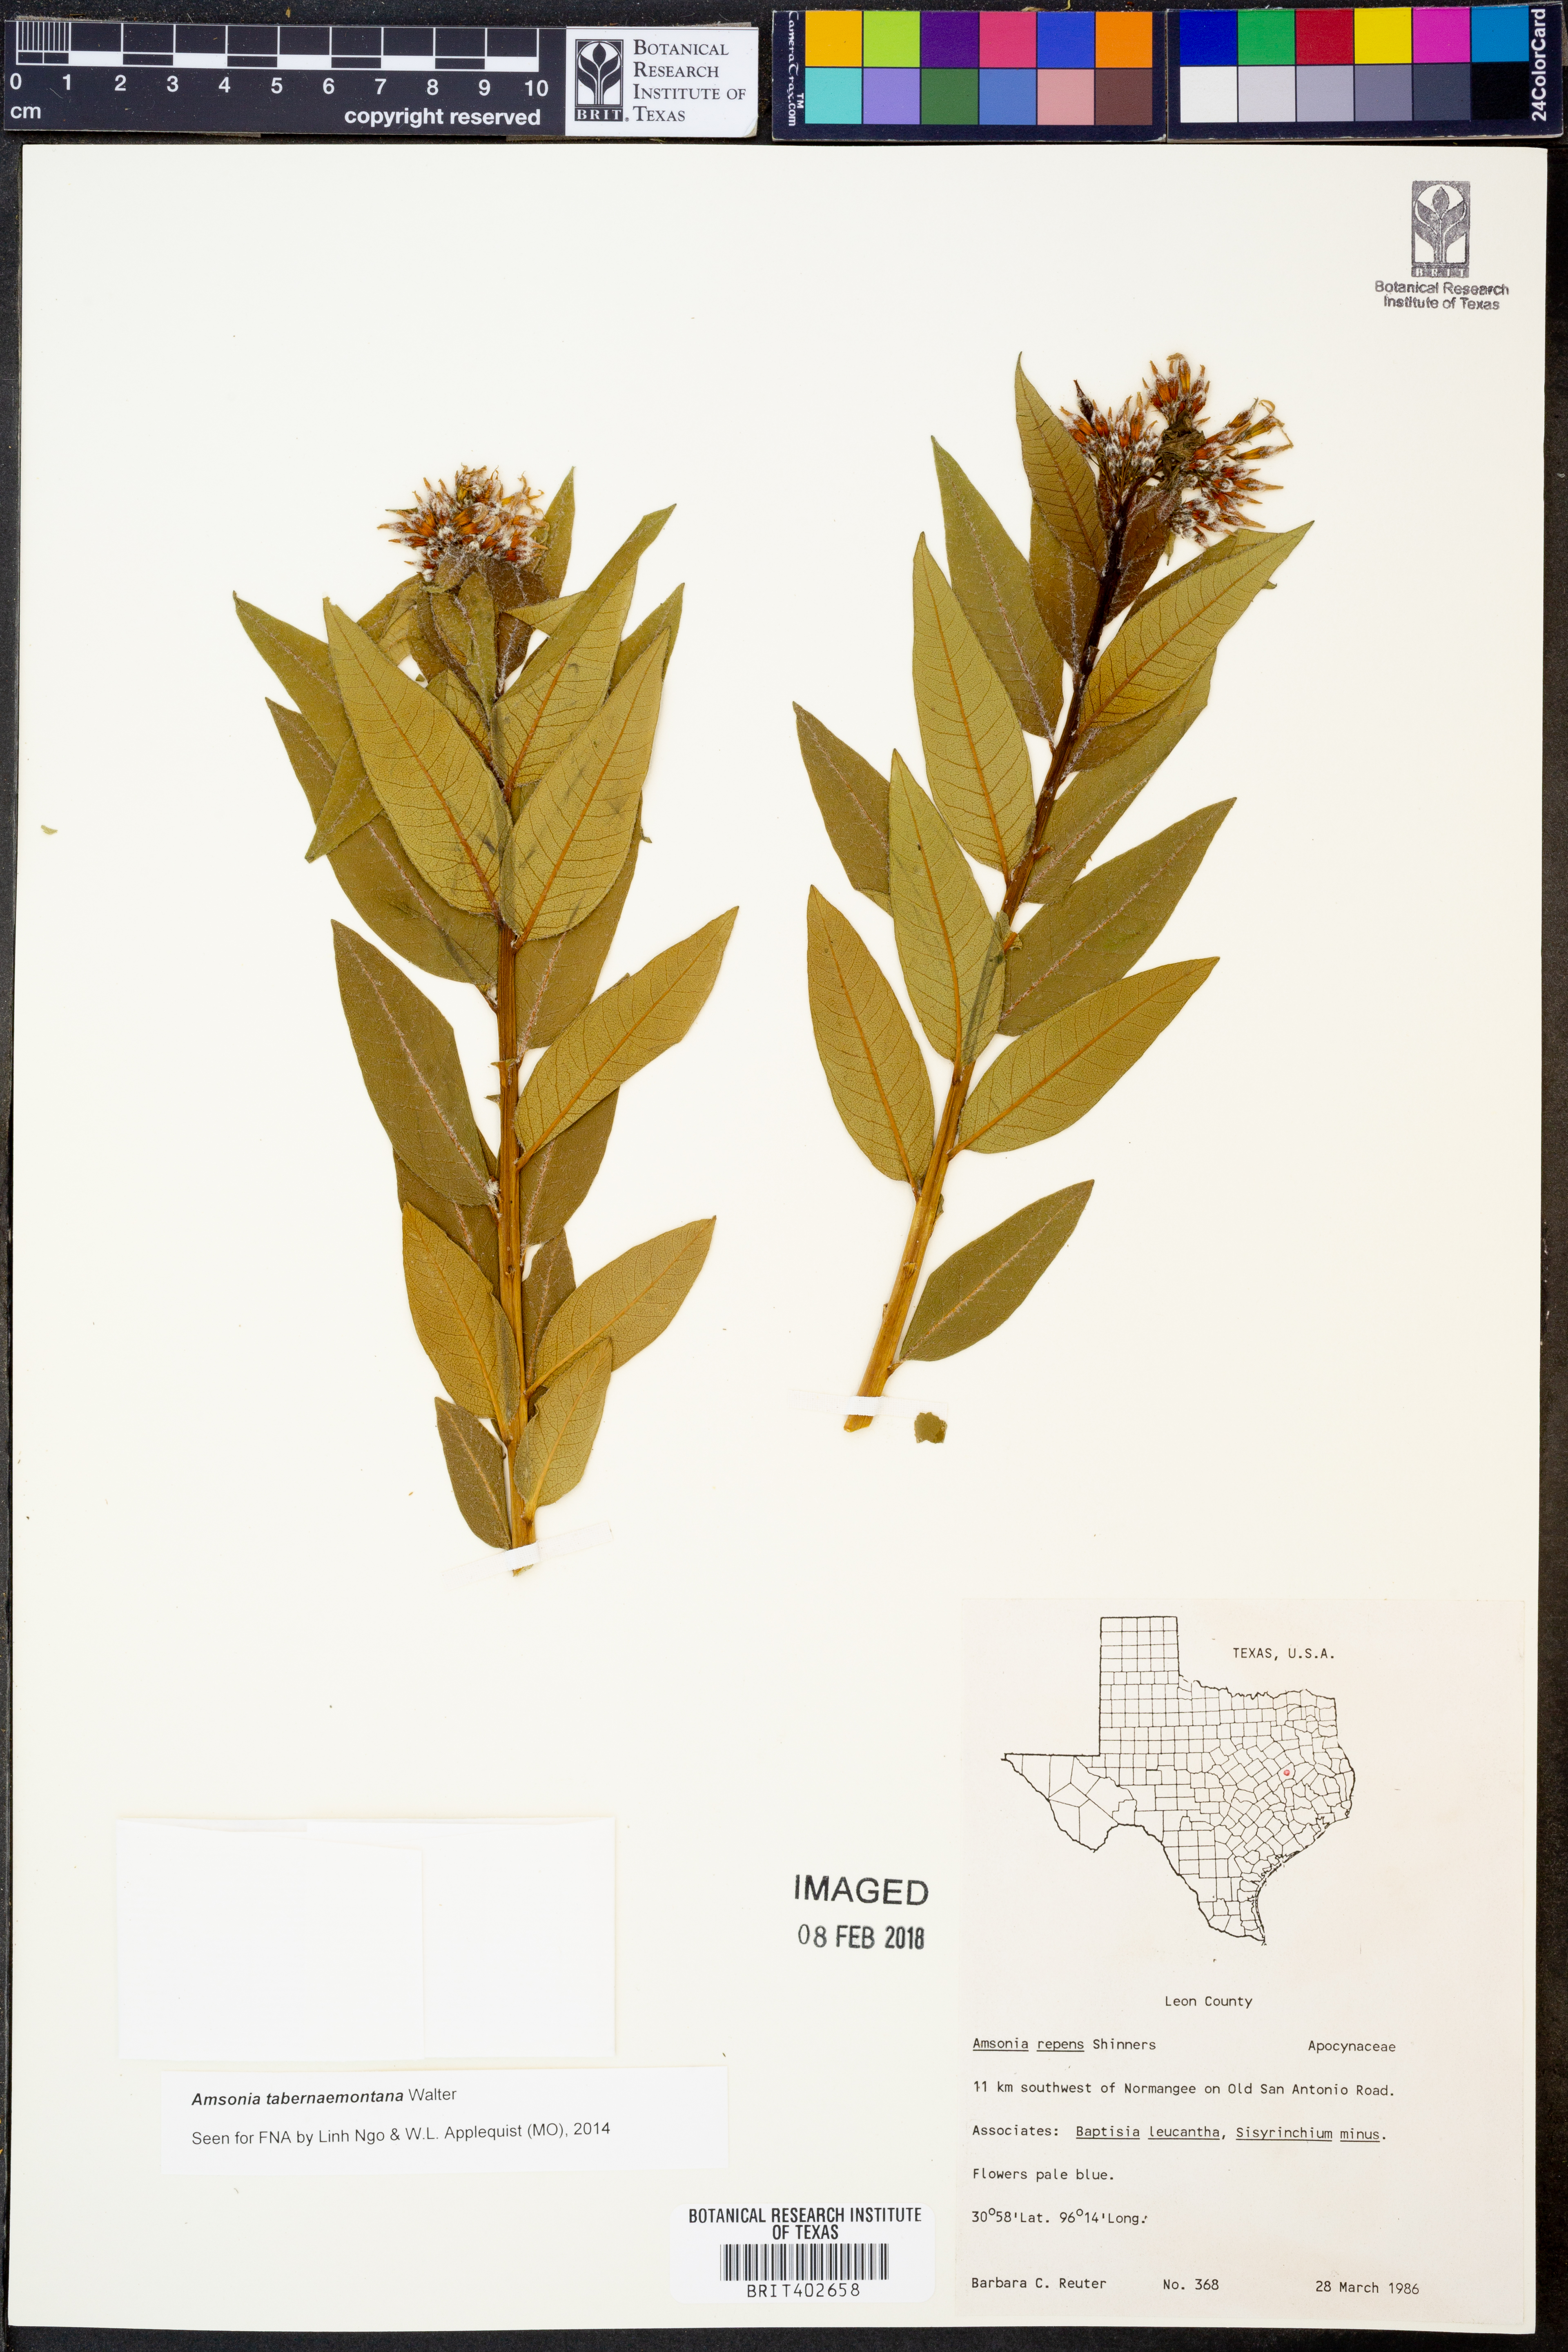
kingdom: Plantae
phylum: Tracheophyta
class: Magnoliopsida
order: Gentianales
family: Apocynaceae
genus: Amsonia
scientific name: Amsonia tabernaemontana
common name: Texas-star
